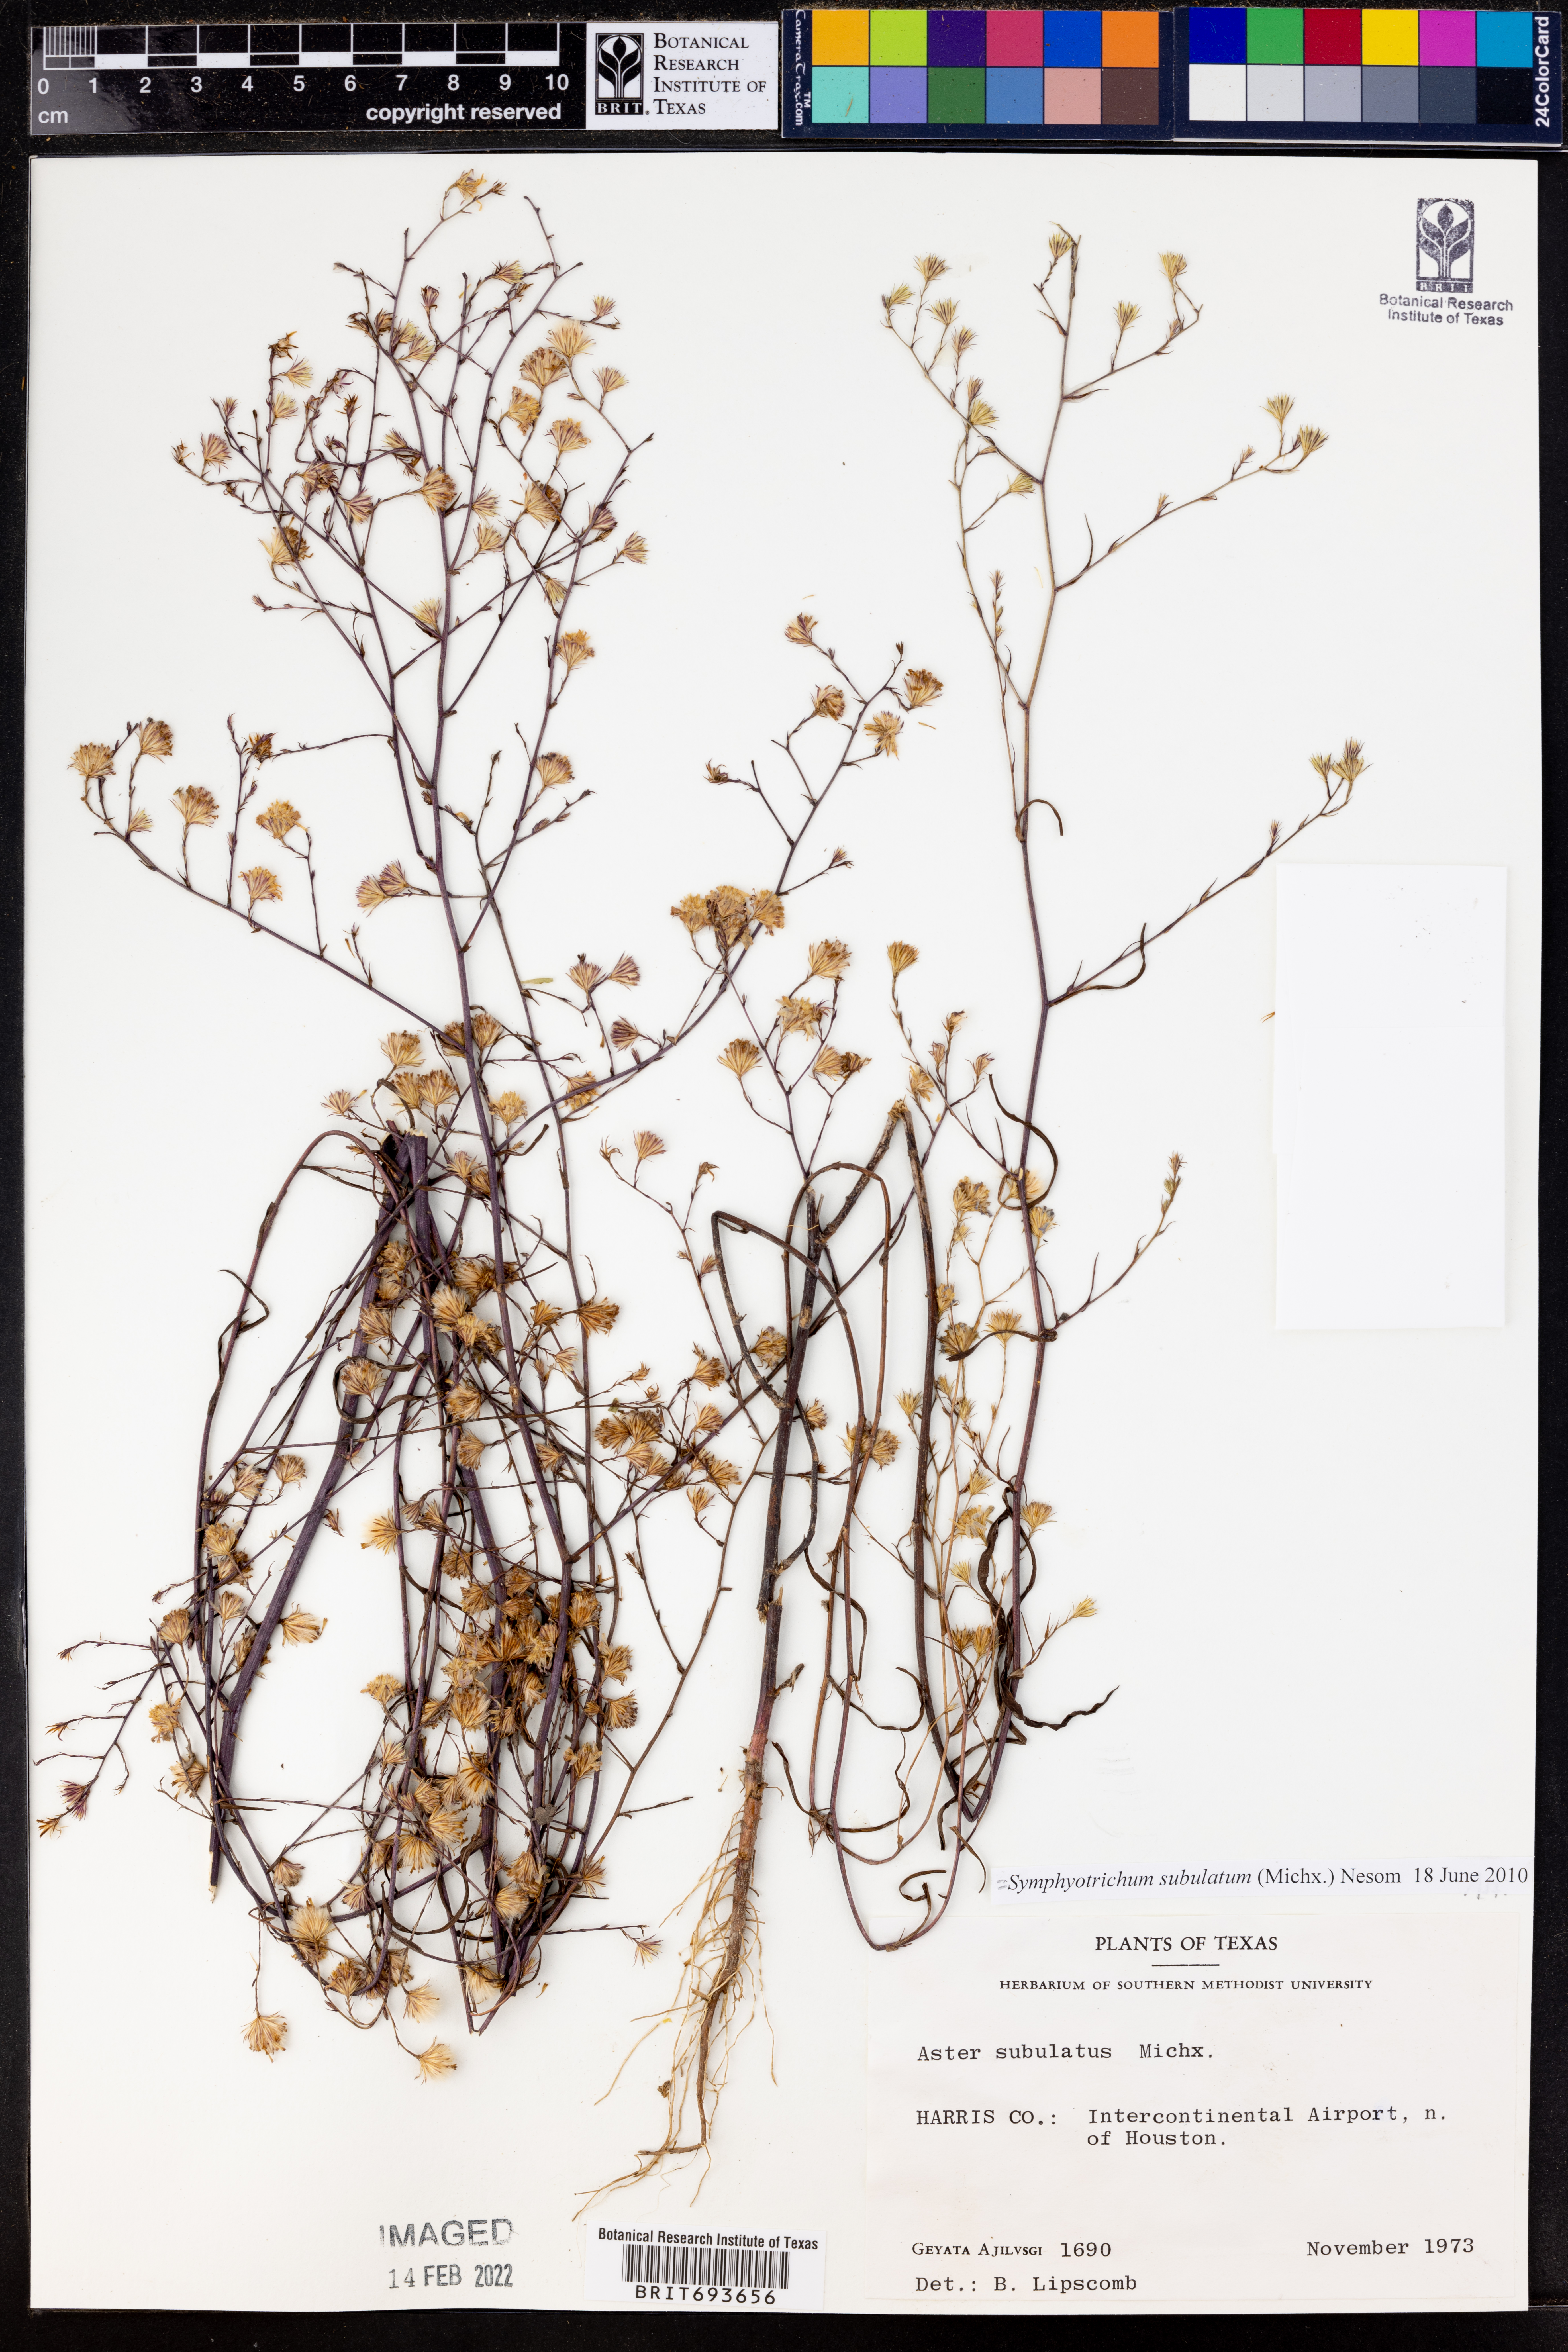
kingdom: Plantae
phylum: Tracheophyta
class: Magnoliopsida
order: Asterales
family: Asteraceae
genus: Symphyotrichum
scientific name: Symphyotrichum subulatum
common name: Annual saltmarsh aster
